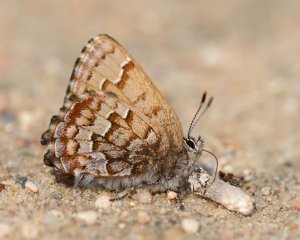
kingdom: Animalia
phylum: Arthropoda
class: Insecta
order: Lepidoptera
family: Lycaenidae
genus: Incisalia
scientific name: Incisalia niphon
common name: Eastern Pine Elfin
